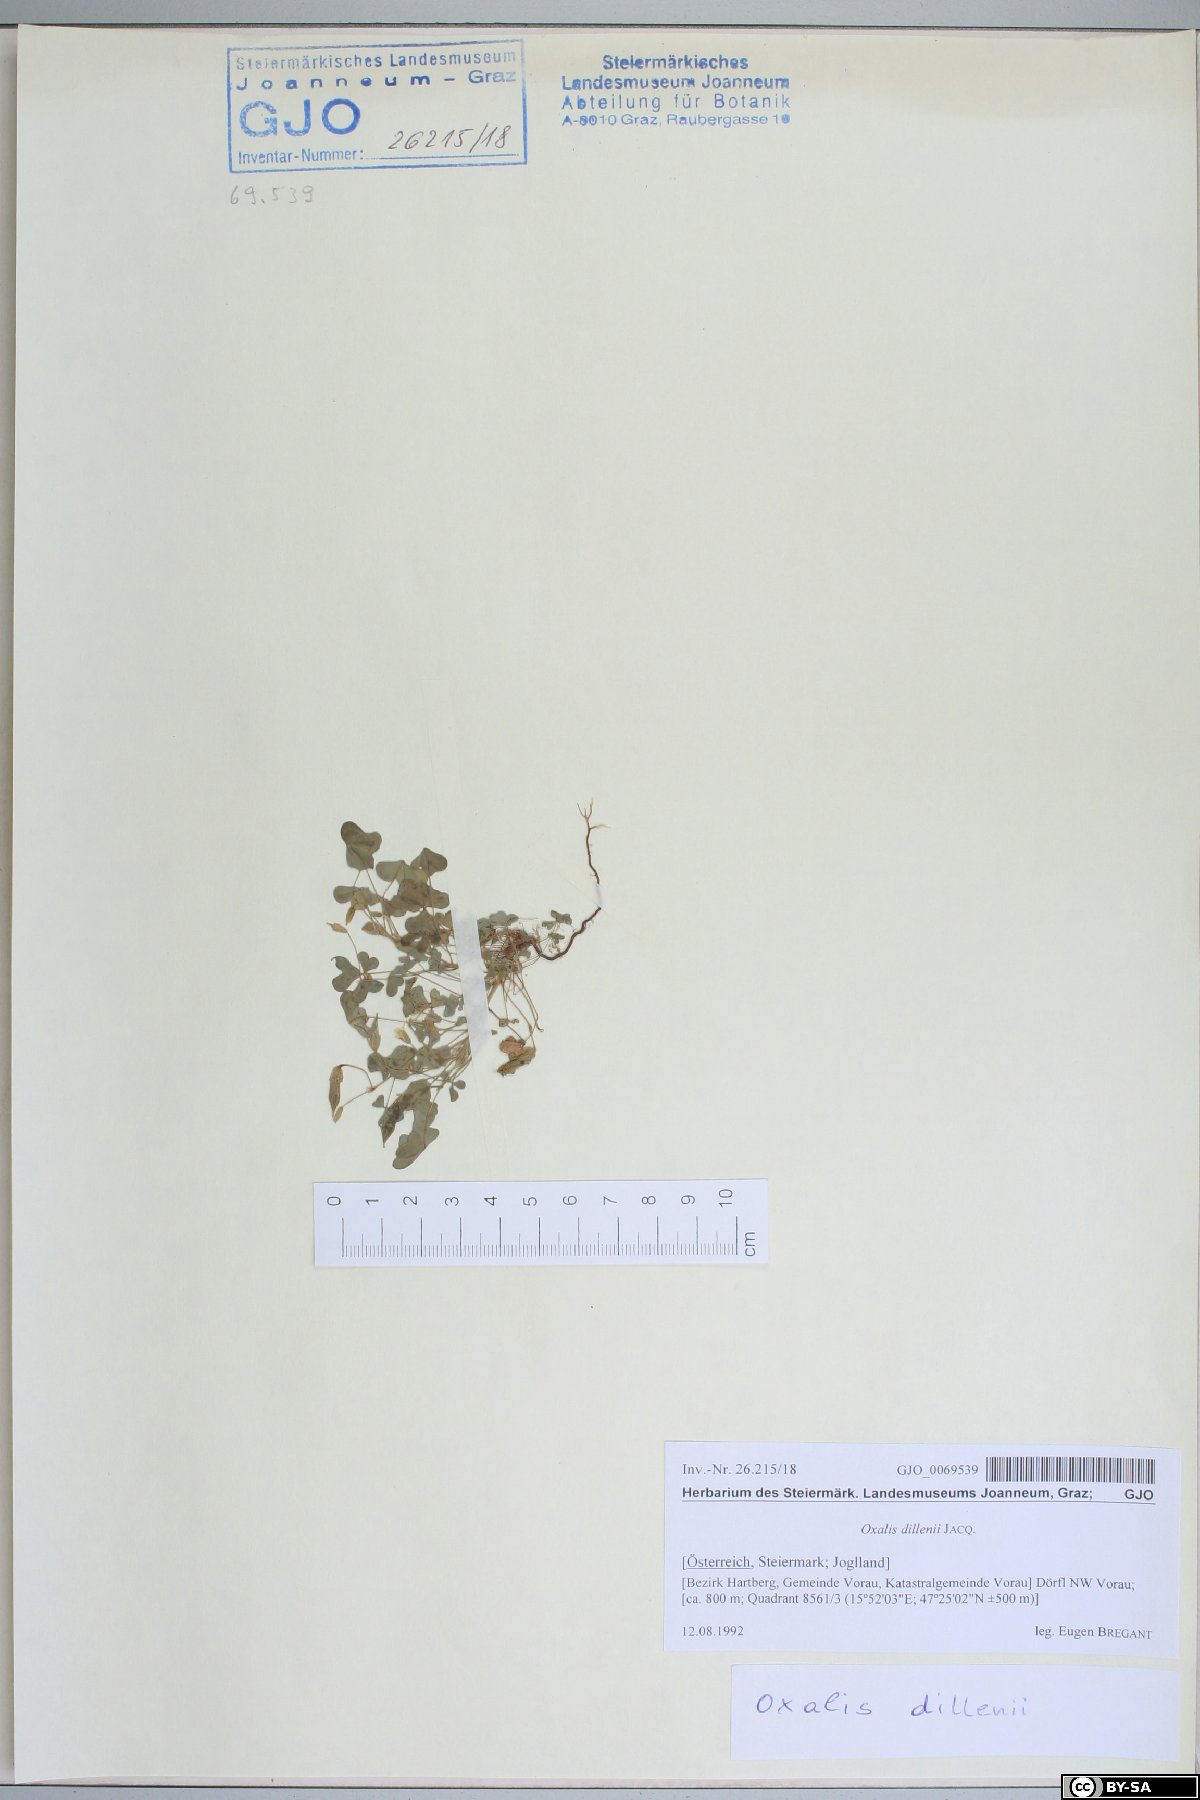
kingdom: Plantae
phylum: Tracheophyta
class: Magnoliopsida
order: Oxalidales
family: Oxalidaceae
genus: Oxalis
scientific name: Oxalis dillenii
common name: Sussex yellow-sorrel
